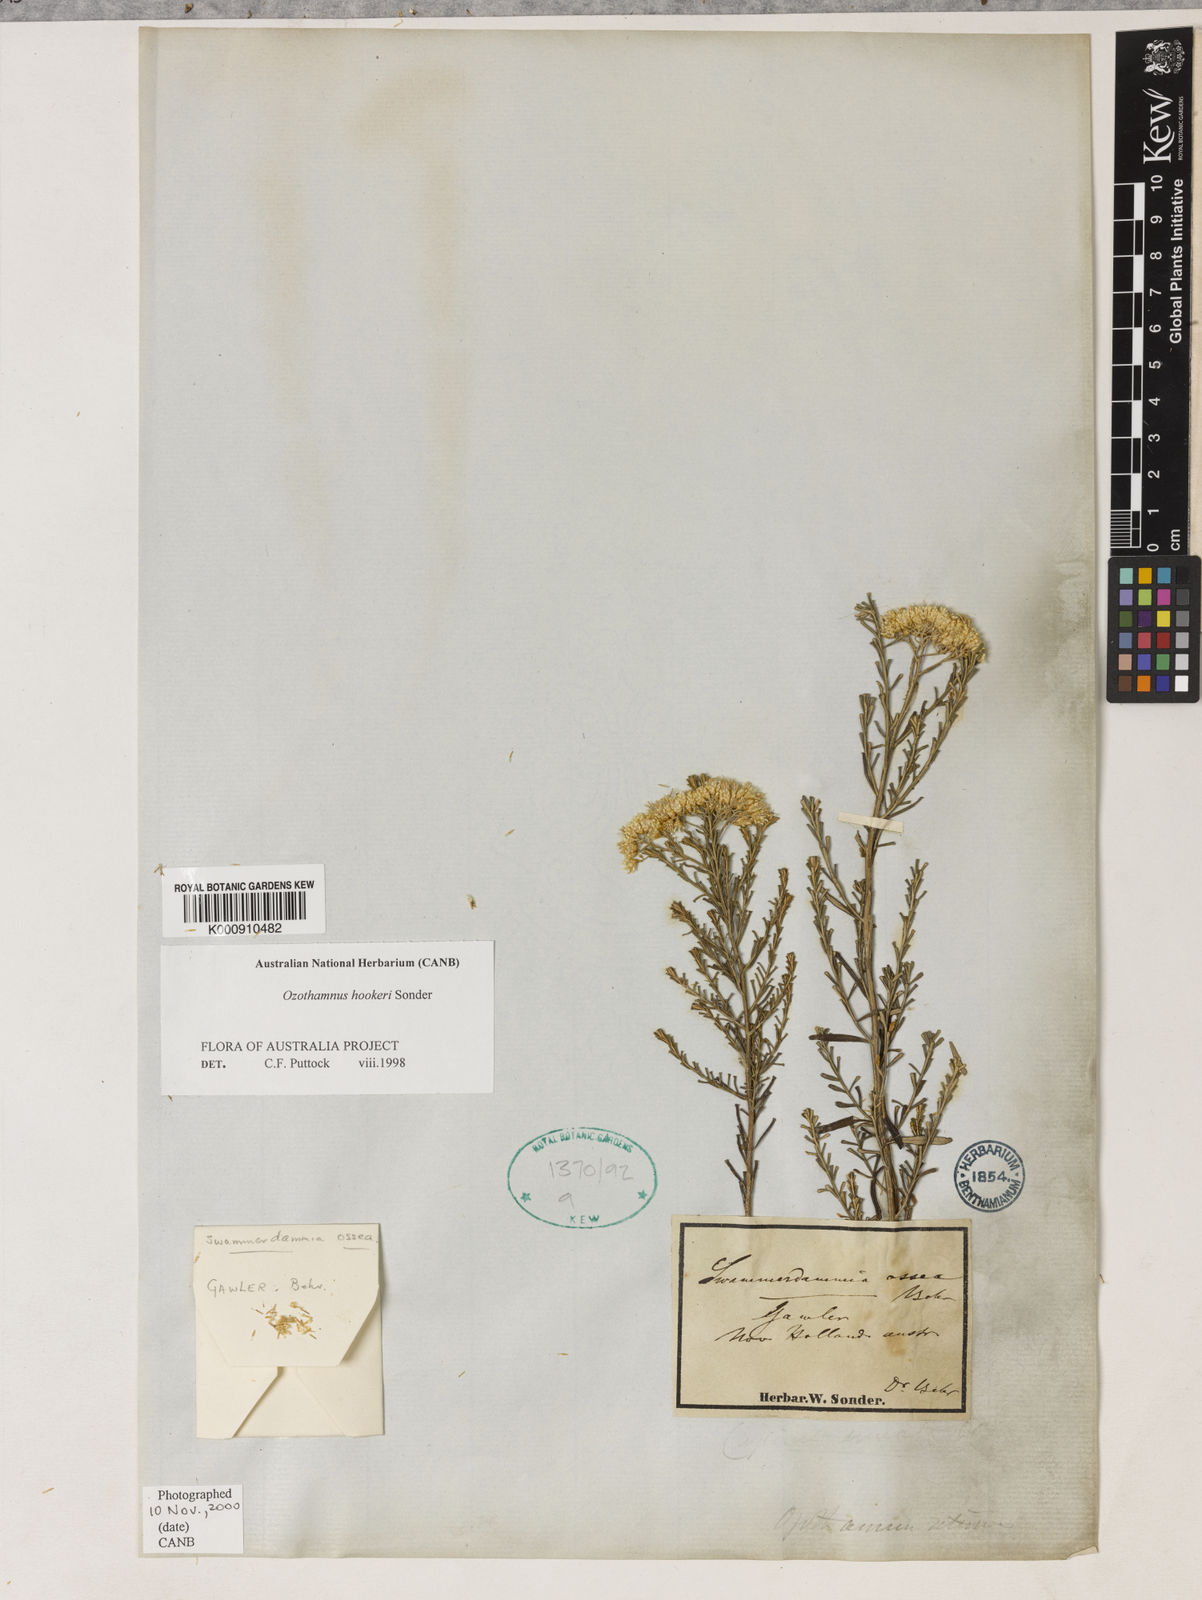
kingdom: Plantae
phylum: Tracheophyta
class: Magnoliopsida
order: Asterales
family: Asteraceae
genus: Ozothamnus
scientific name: Ozothamnus hookeri
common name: Kerosene-bush
